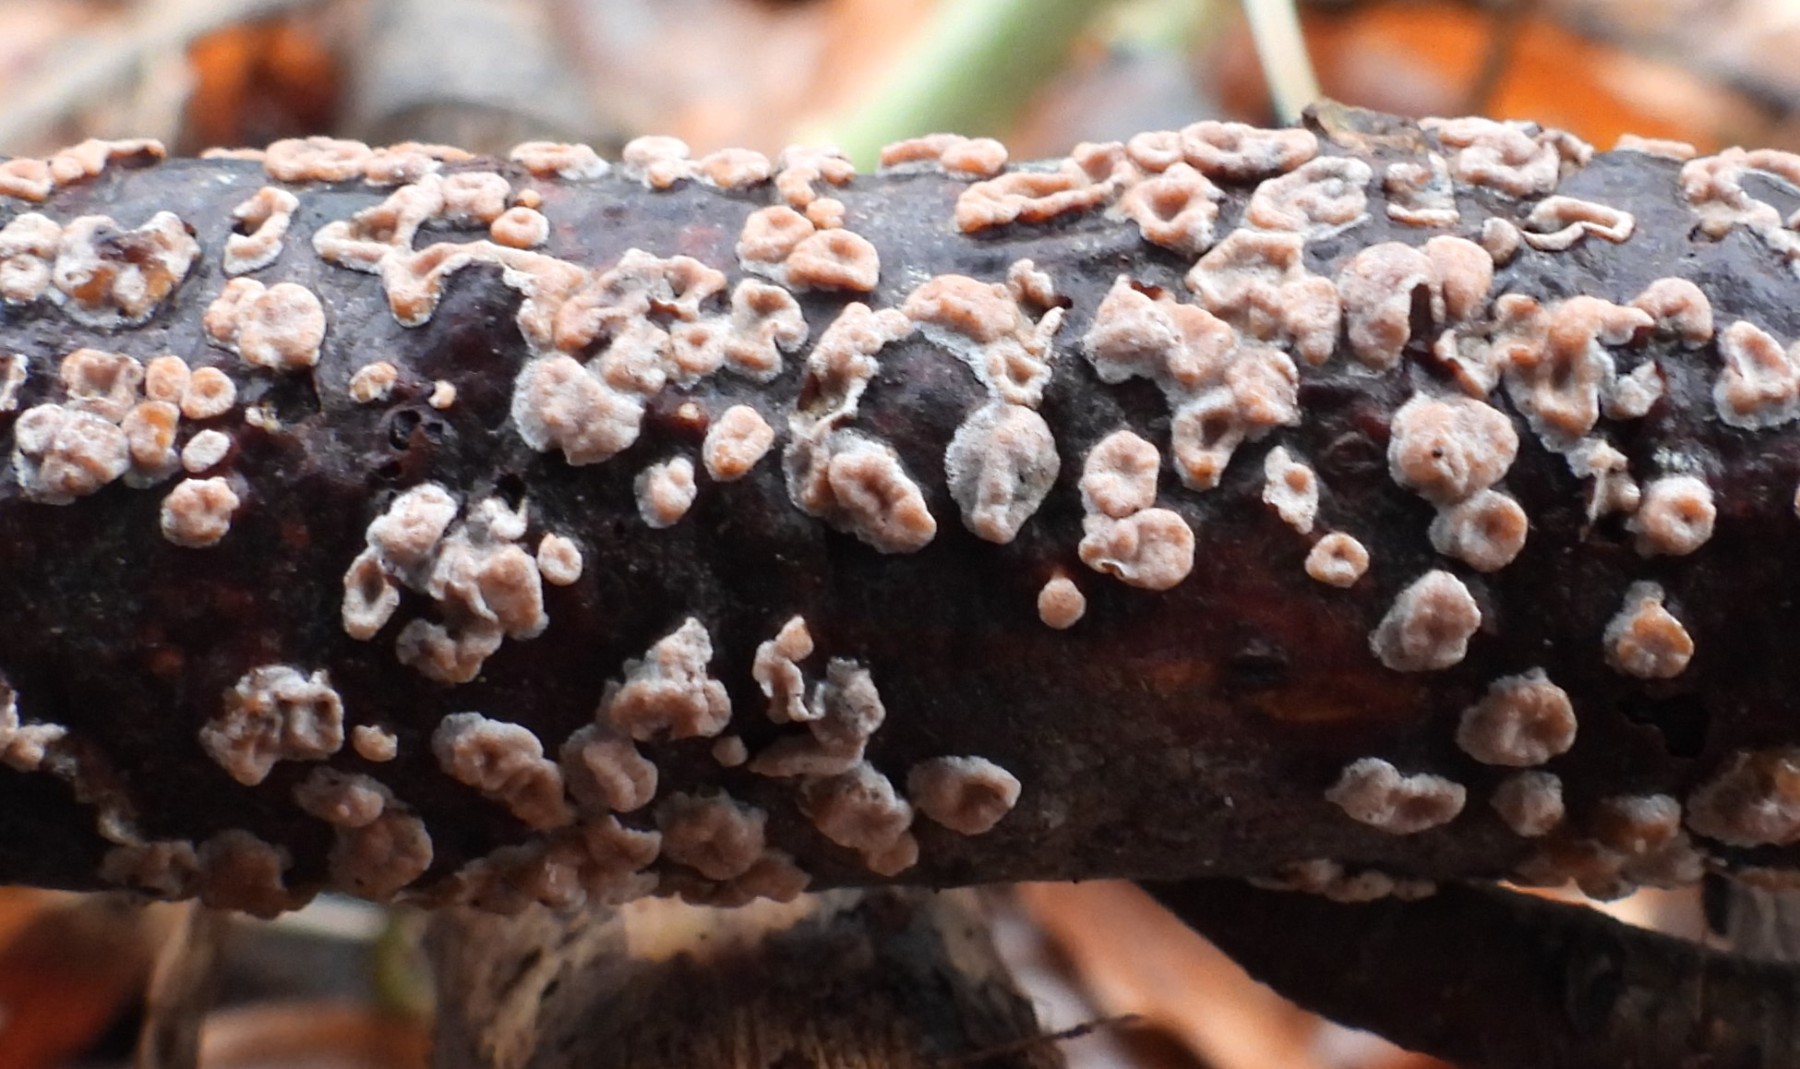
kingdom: Fungi
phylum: Basidiomycota
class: Agaricomycetes
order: Russulales
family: Peniophoraceae
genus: Peniophora
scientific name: Peniophora polygonia
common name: polygon-voksskind
